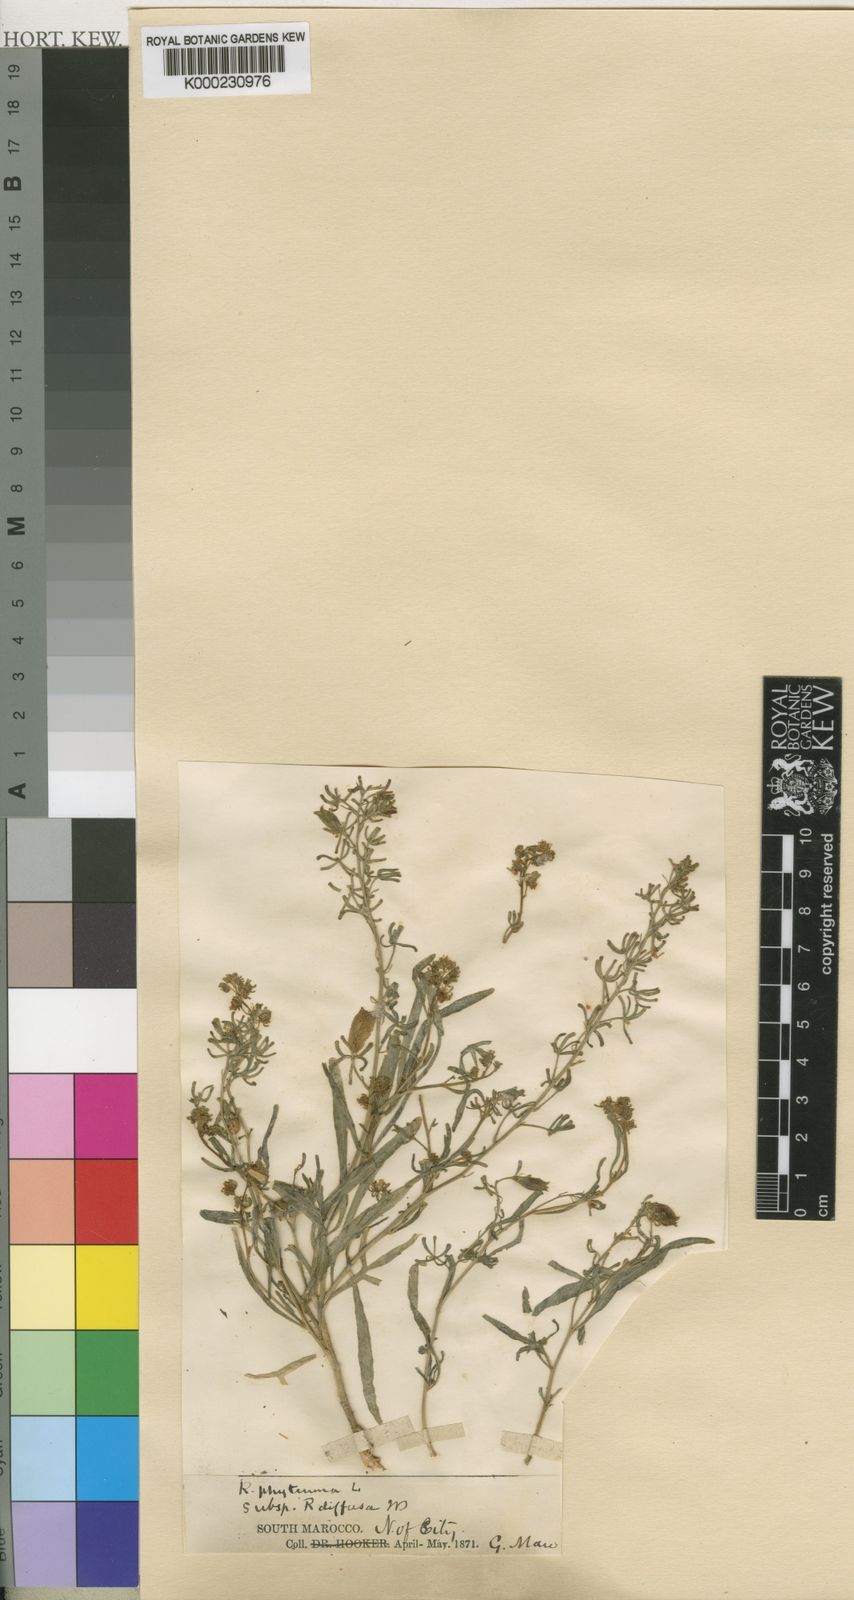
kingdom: Plantae
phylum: Tracheophyta
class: Magnoliopsida
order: Brassicales
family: Resedaceae
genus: Reseda
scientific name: Reseda diffusa
